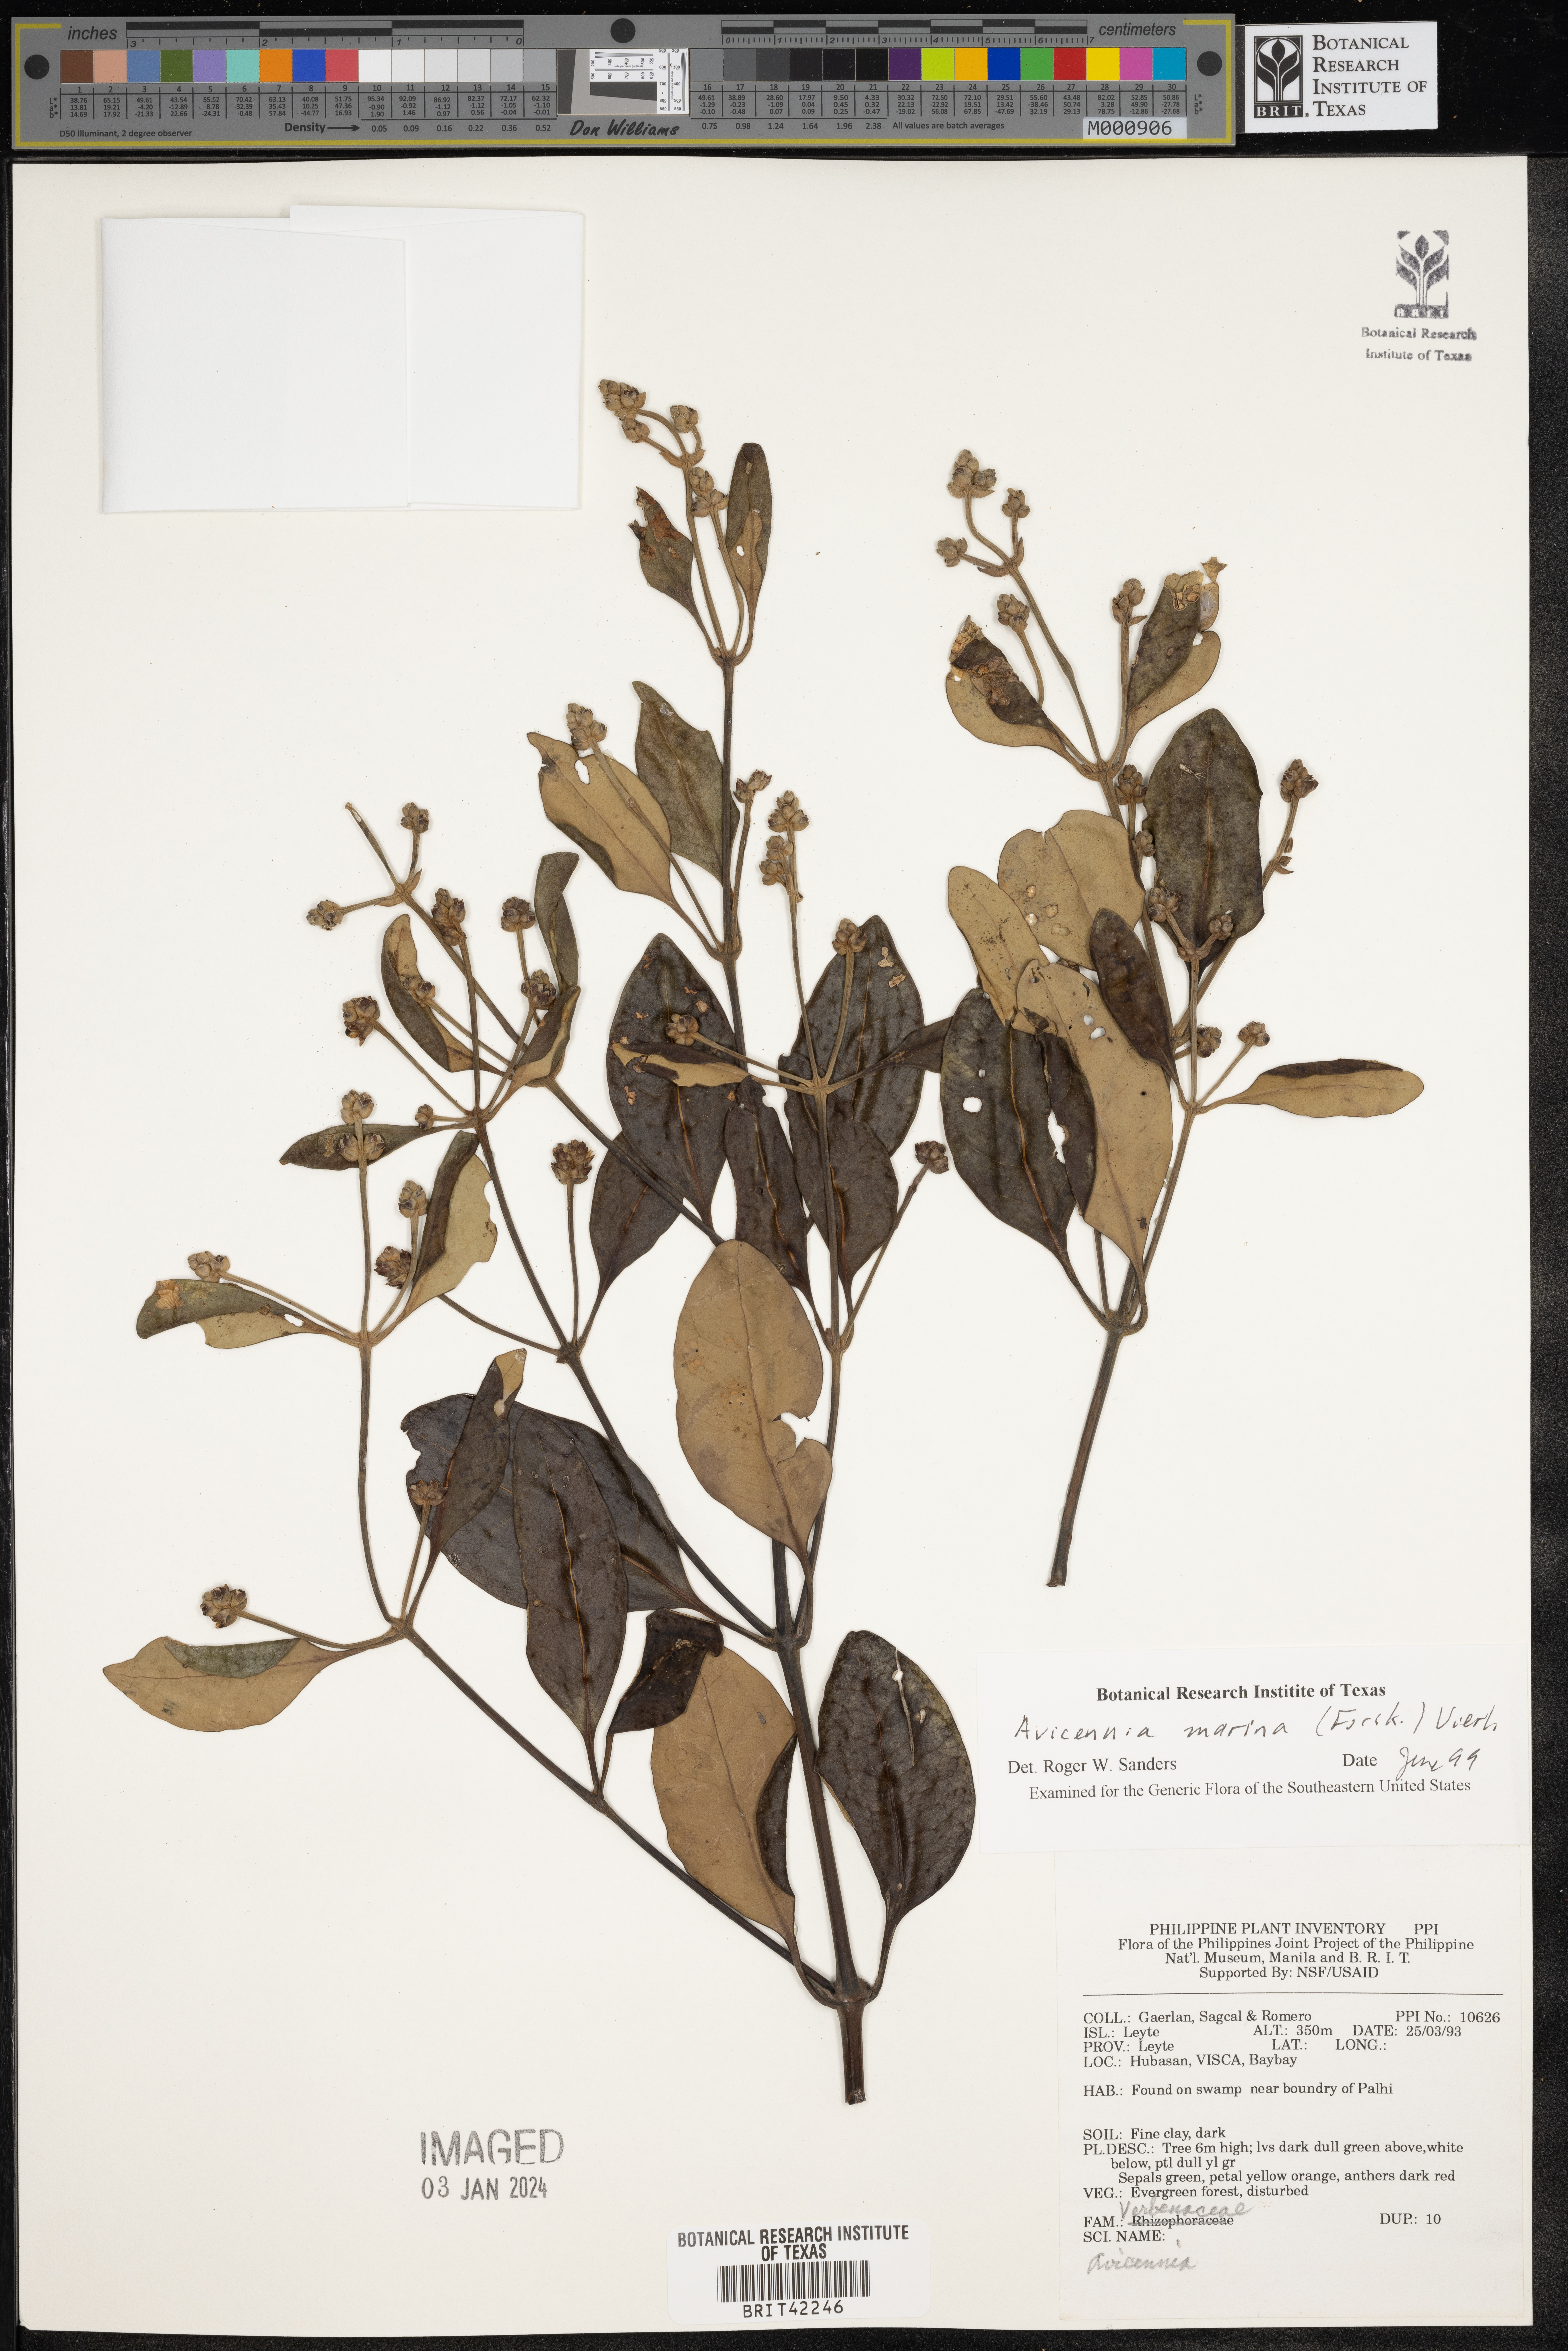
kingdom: Plantae
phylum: Tracheophyta
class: Magnoliopsida
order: Lamiales
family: Acanthaceae
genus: Avicennia
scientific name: Avicennia marina
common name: Gray mangrove
